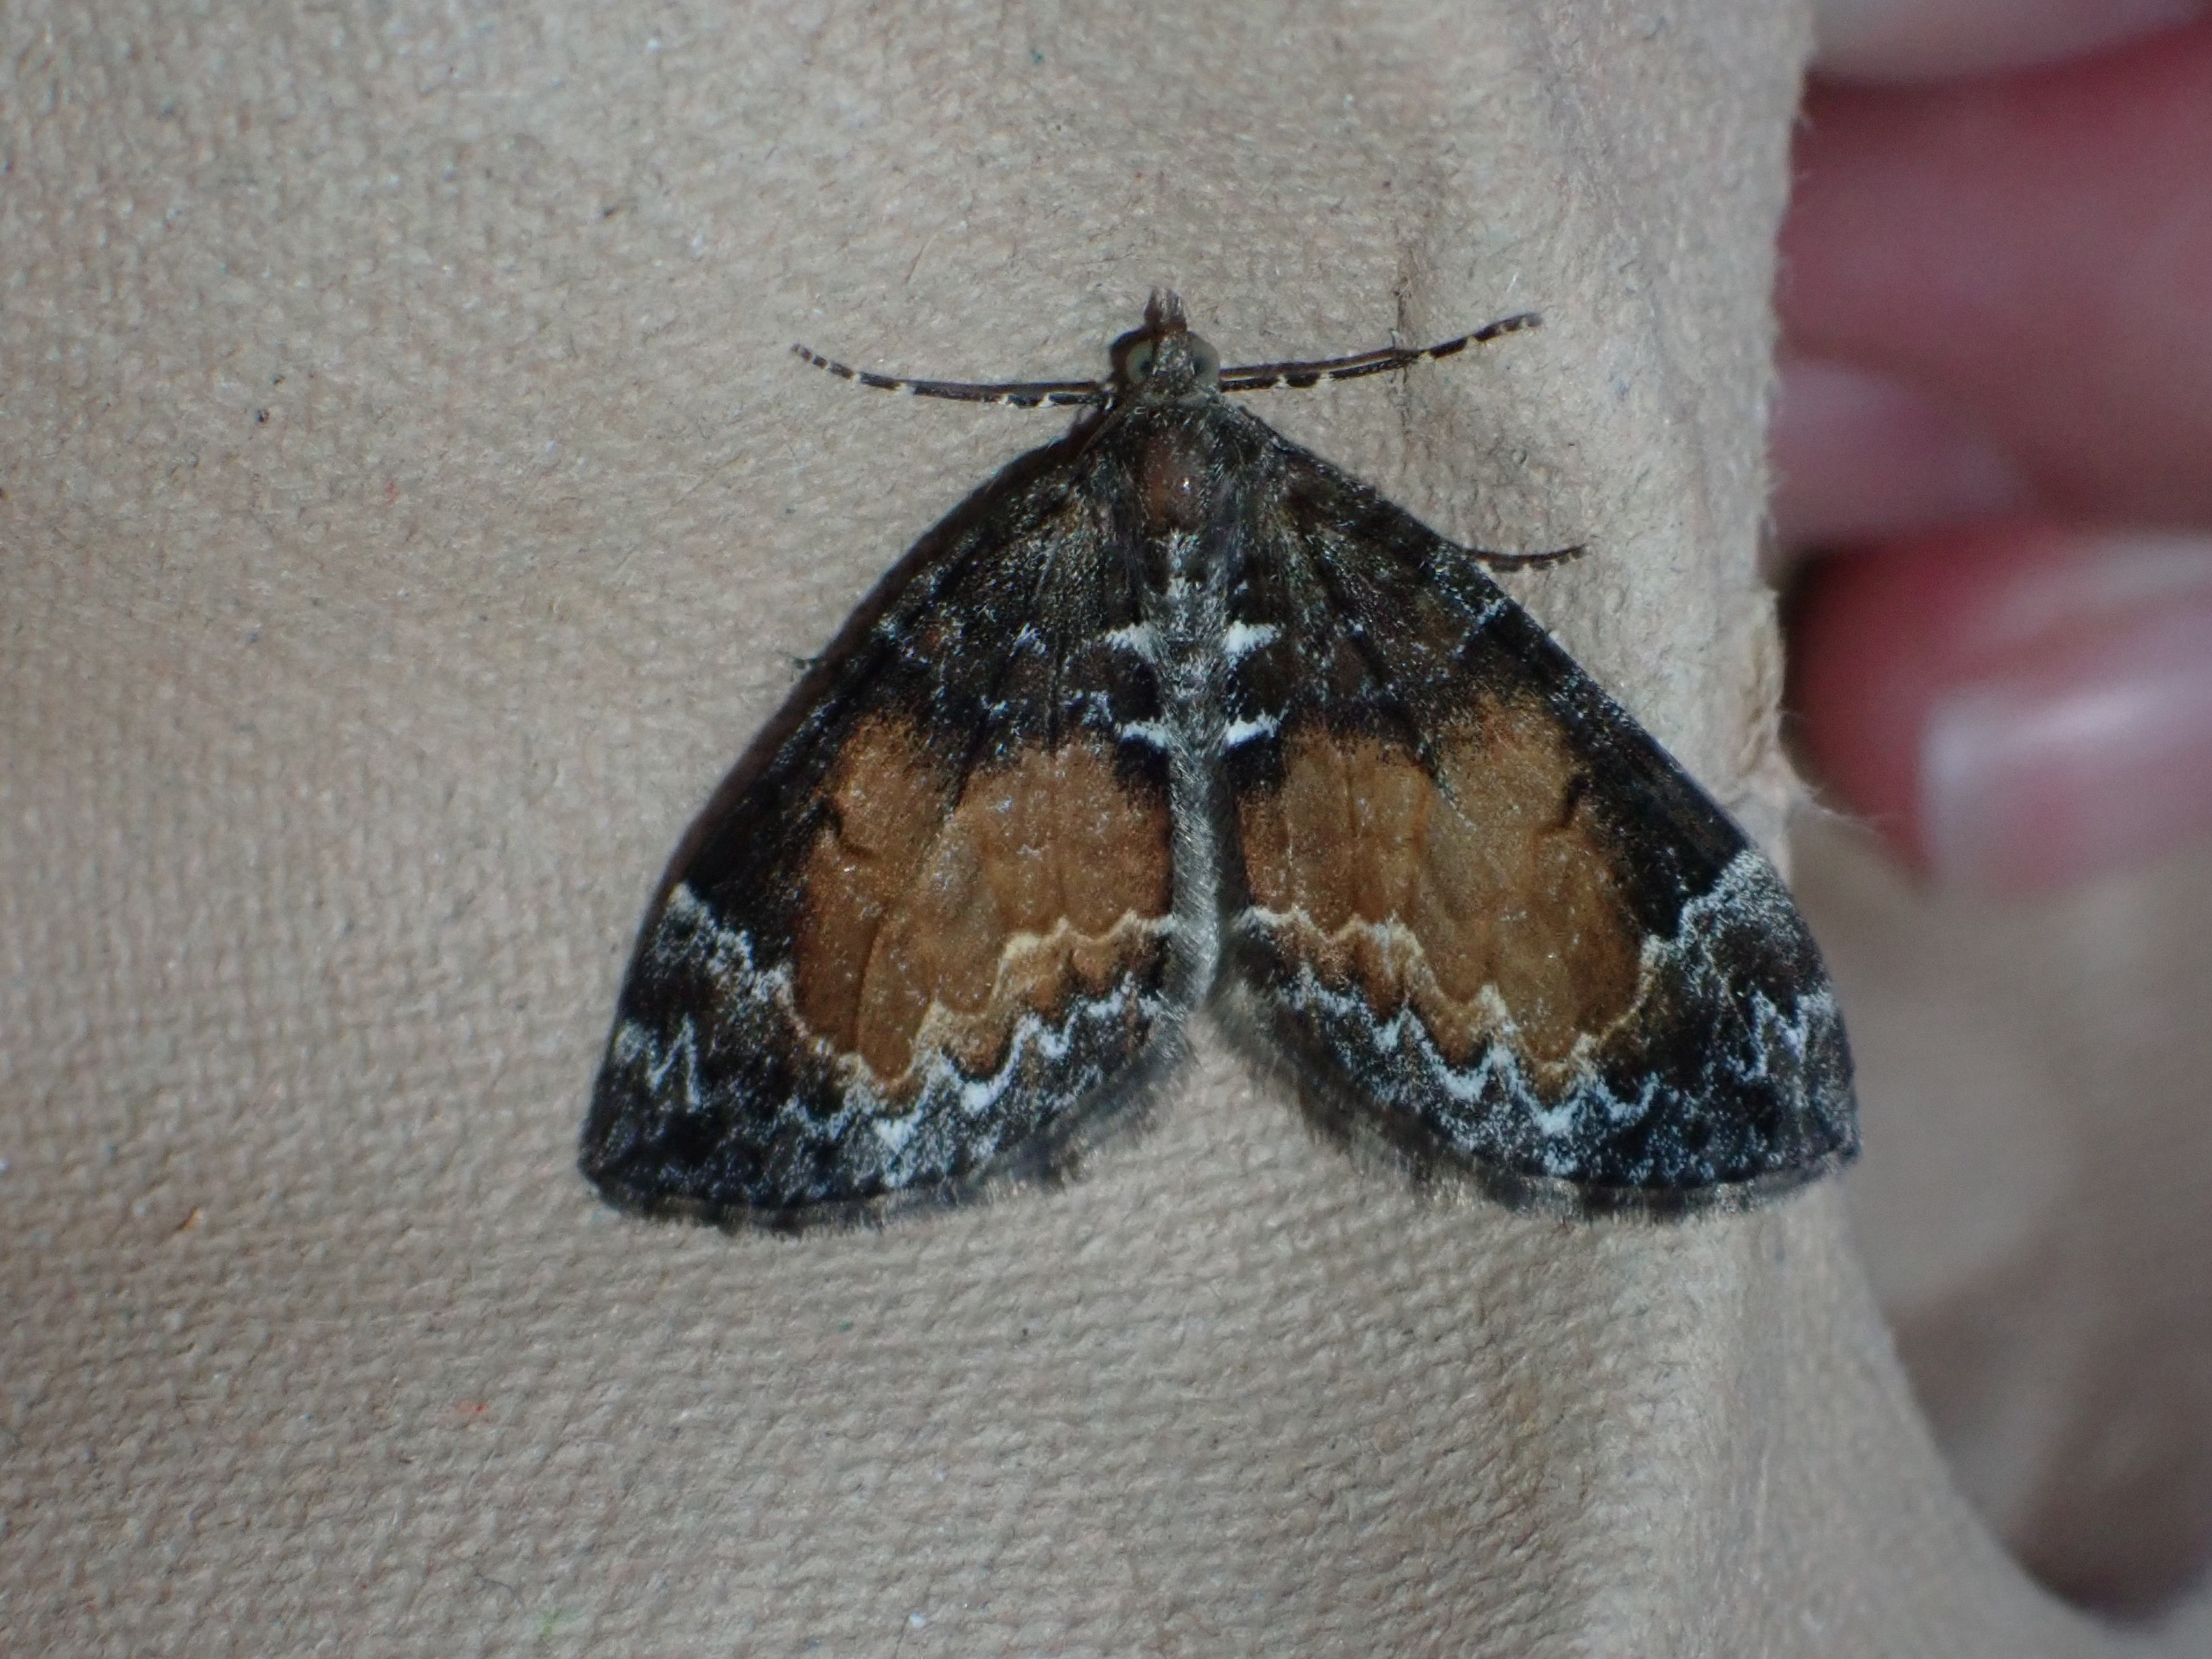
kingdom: Animalia
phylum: Arthropoda
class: Insecta
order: Lepidoptera
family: Geometridae
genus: Dysstroma
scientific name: Dysstroma truncata
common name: Jordbær-bladmåler
